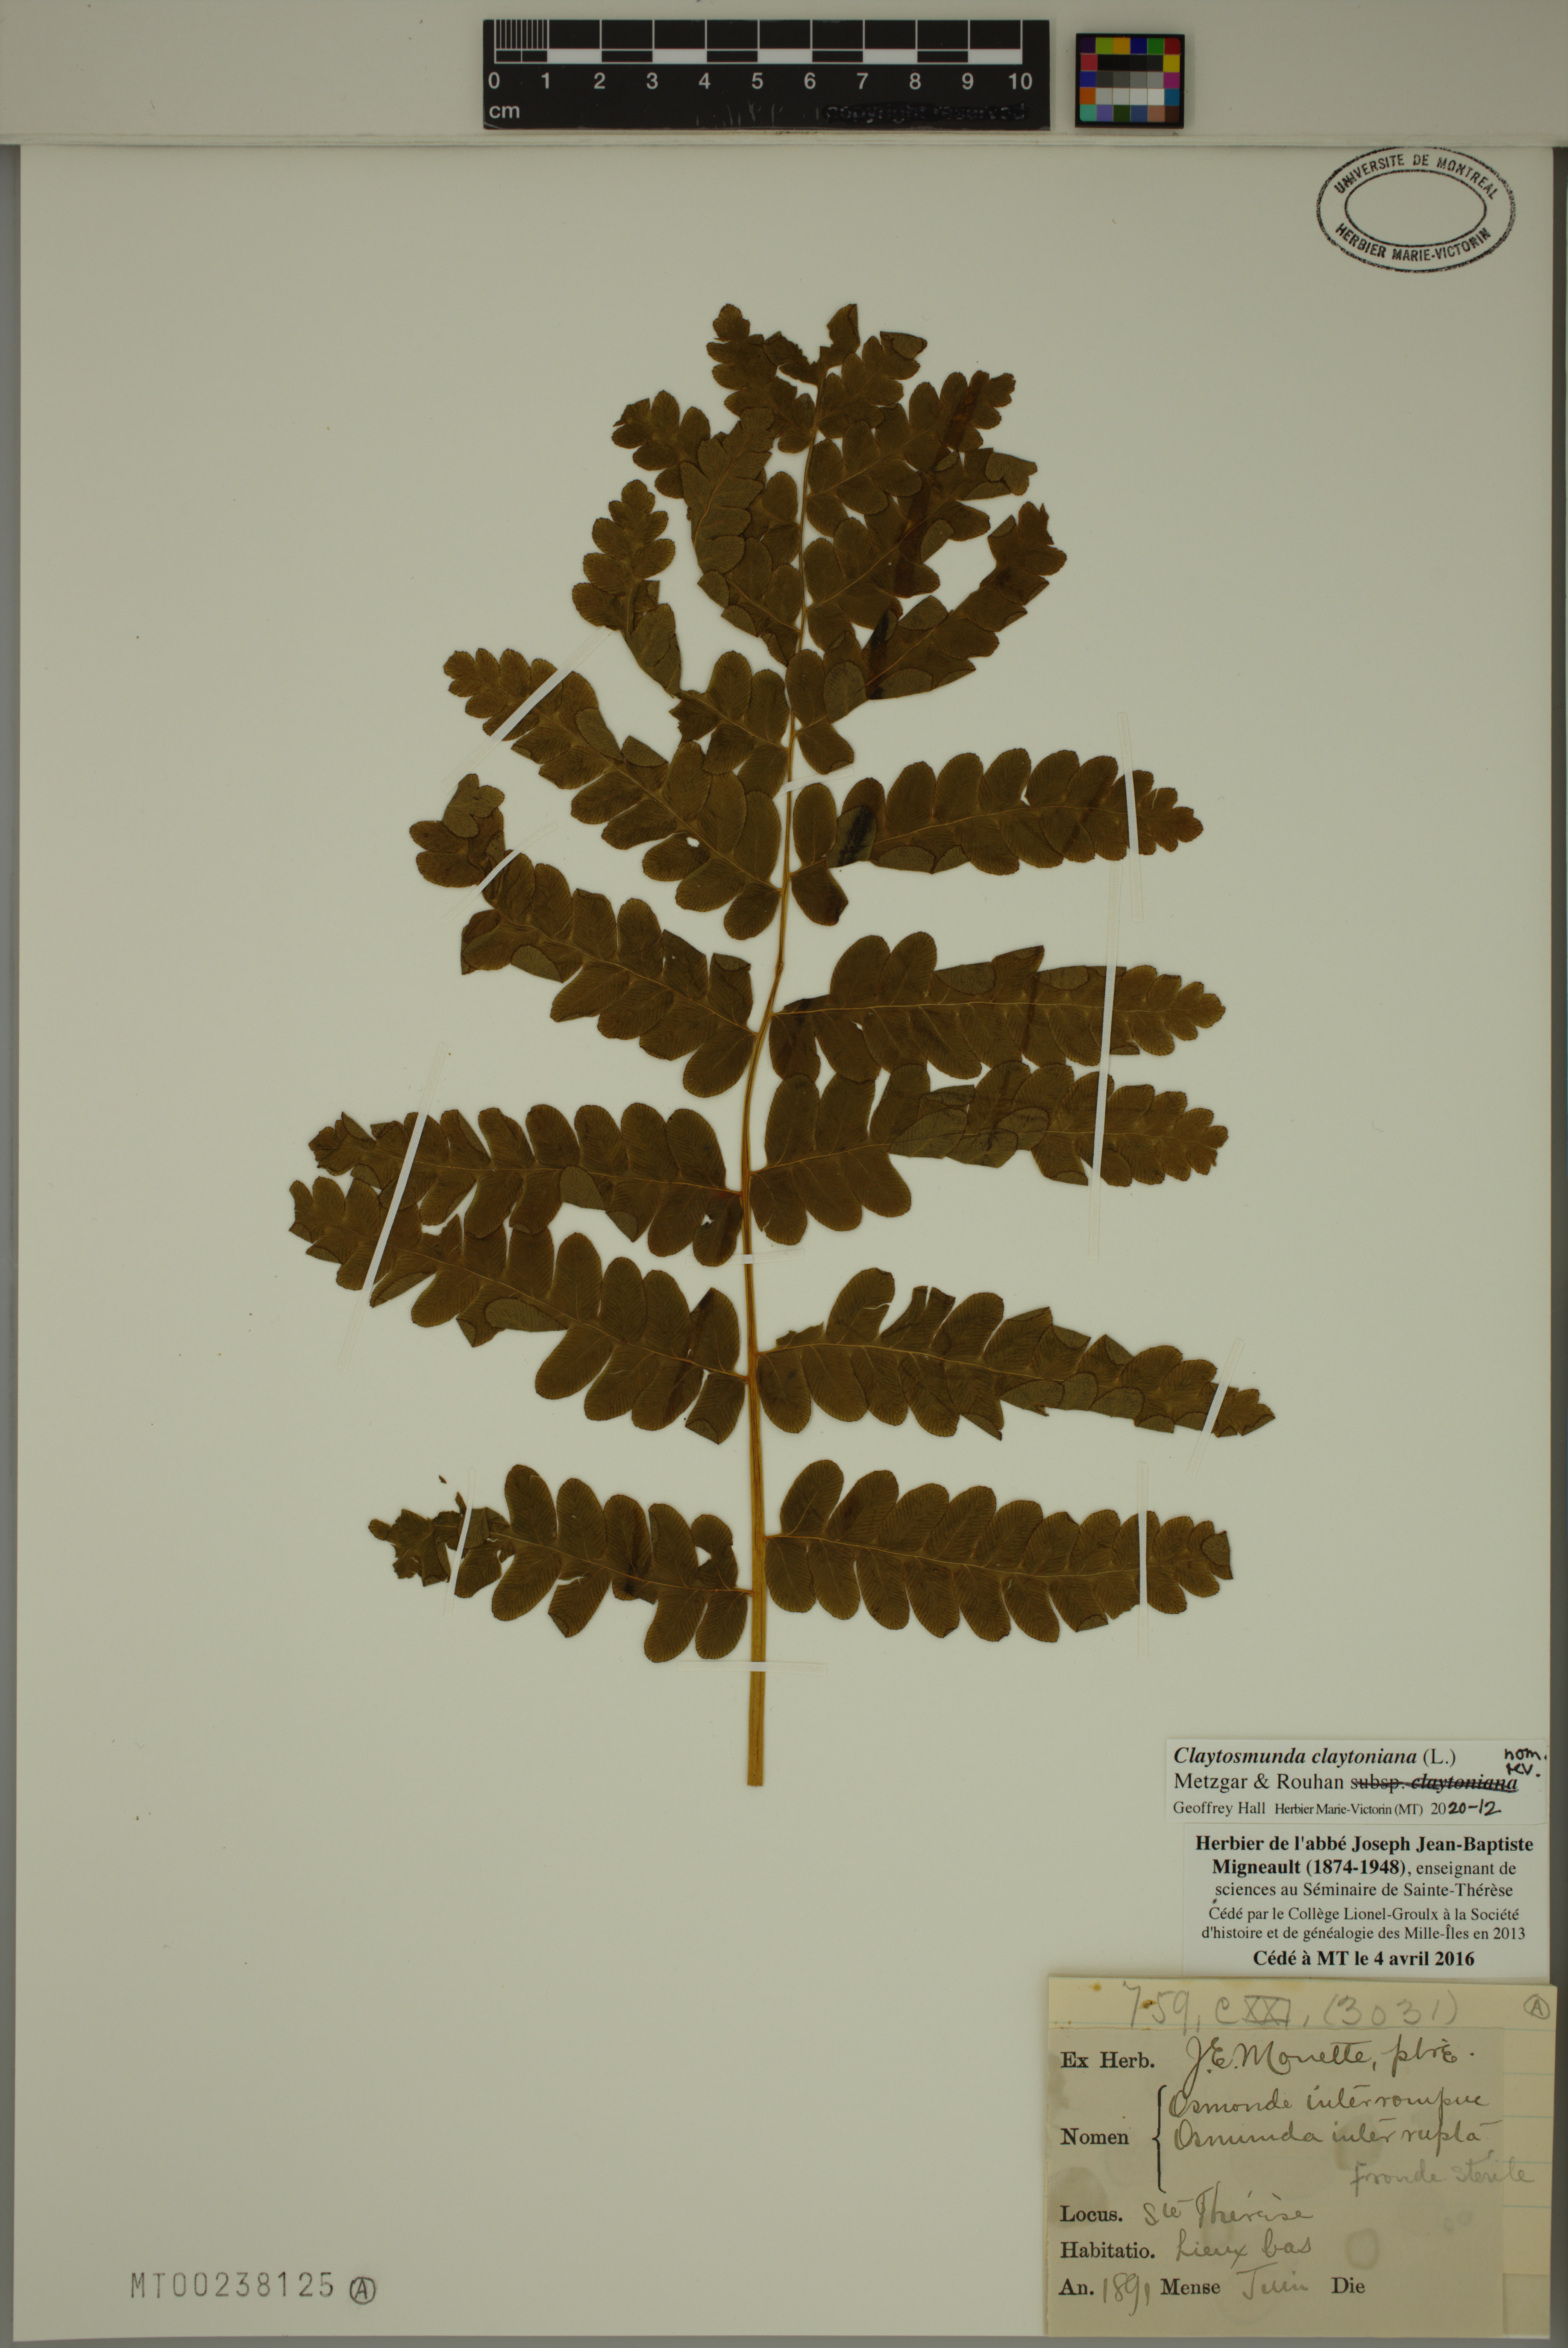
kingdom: Plantae
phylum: Tracheophyta
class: Polypodiopsida
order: Osmundales
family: Osmundaceae
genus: Claytosmunda
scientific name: Claytosmunda claytoniana
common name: Clayton's fern
